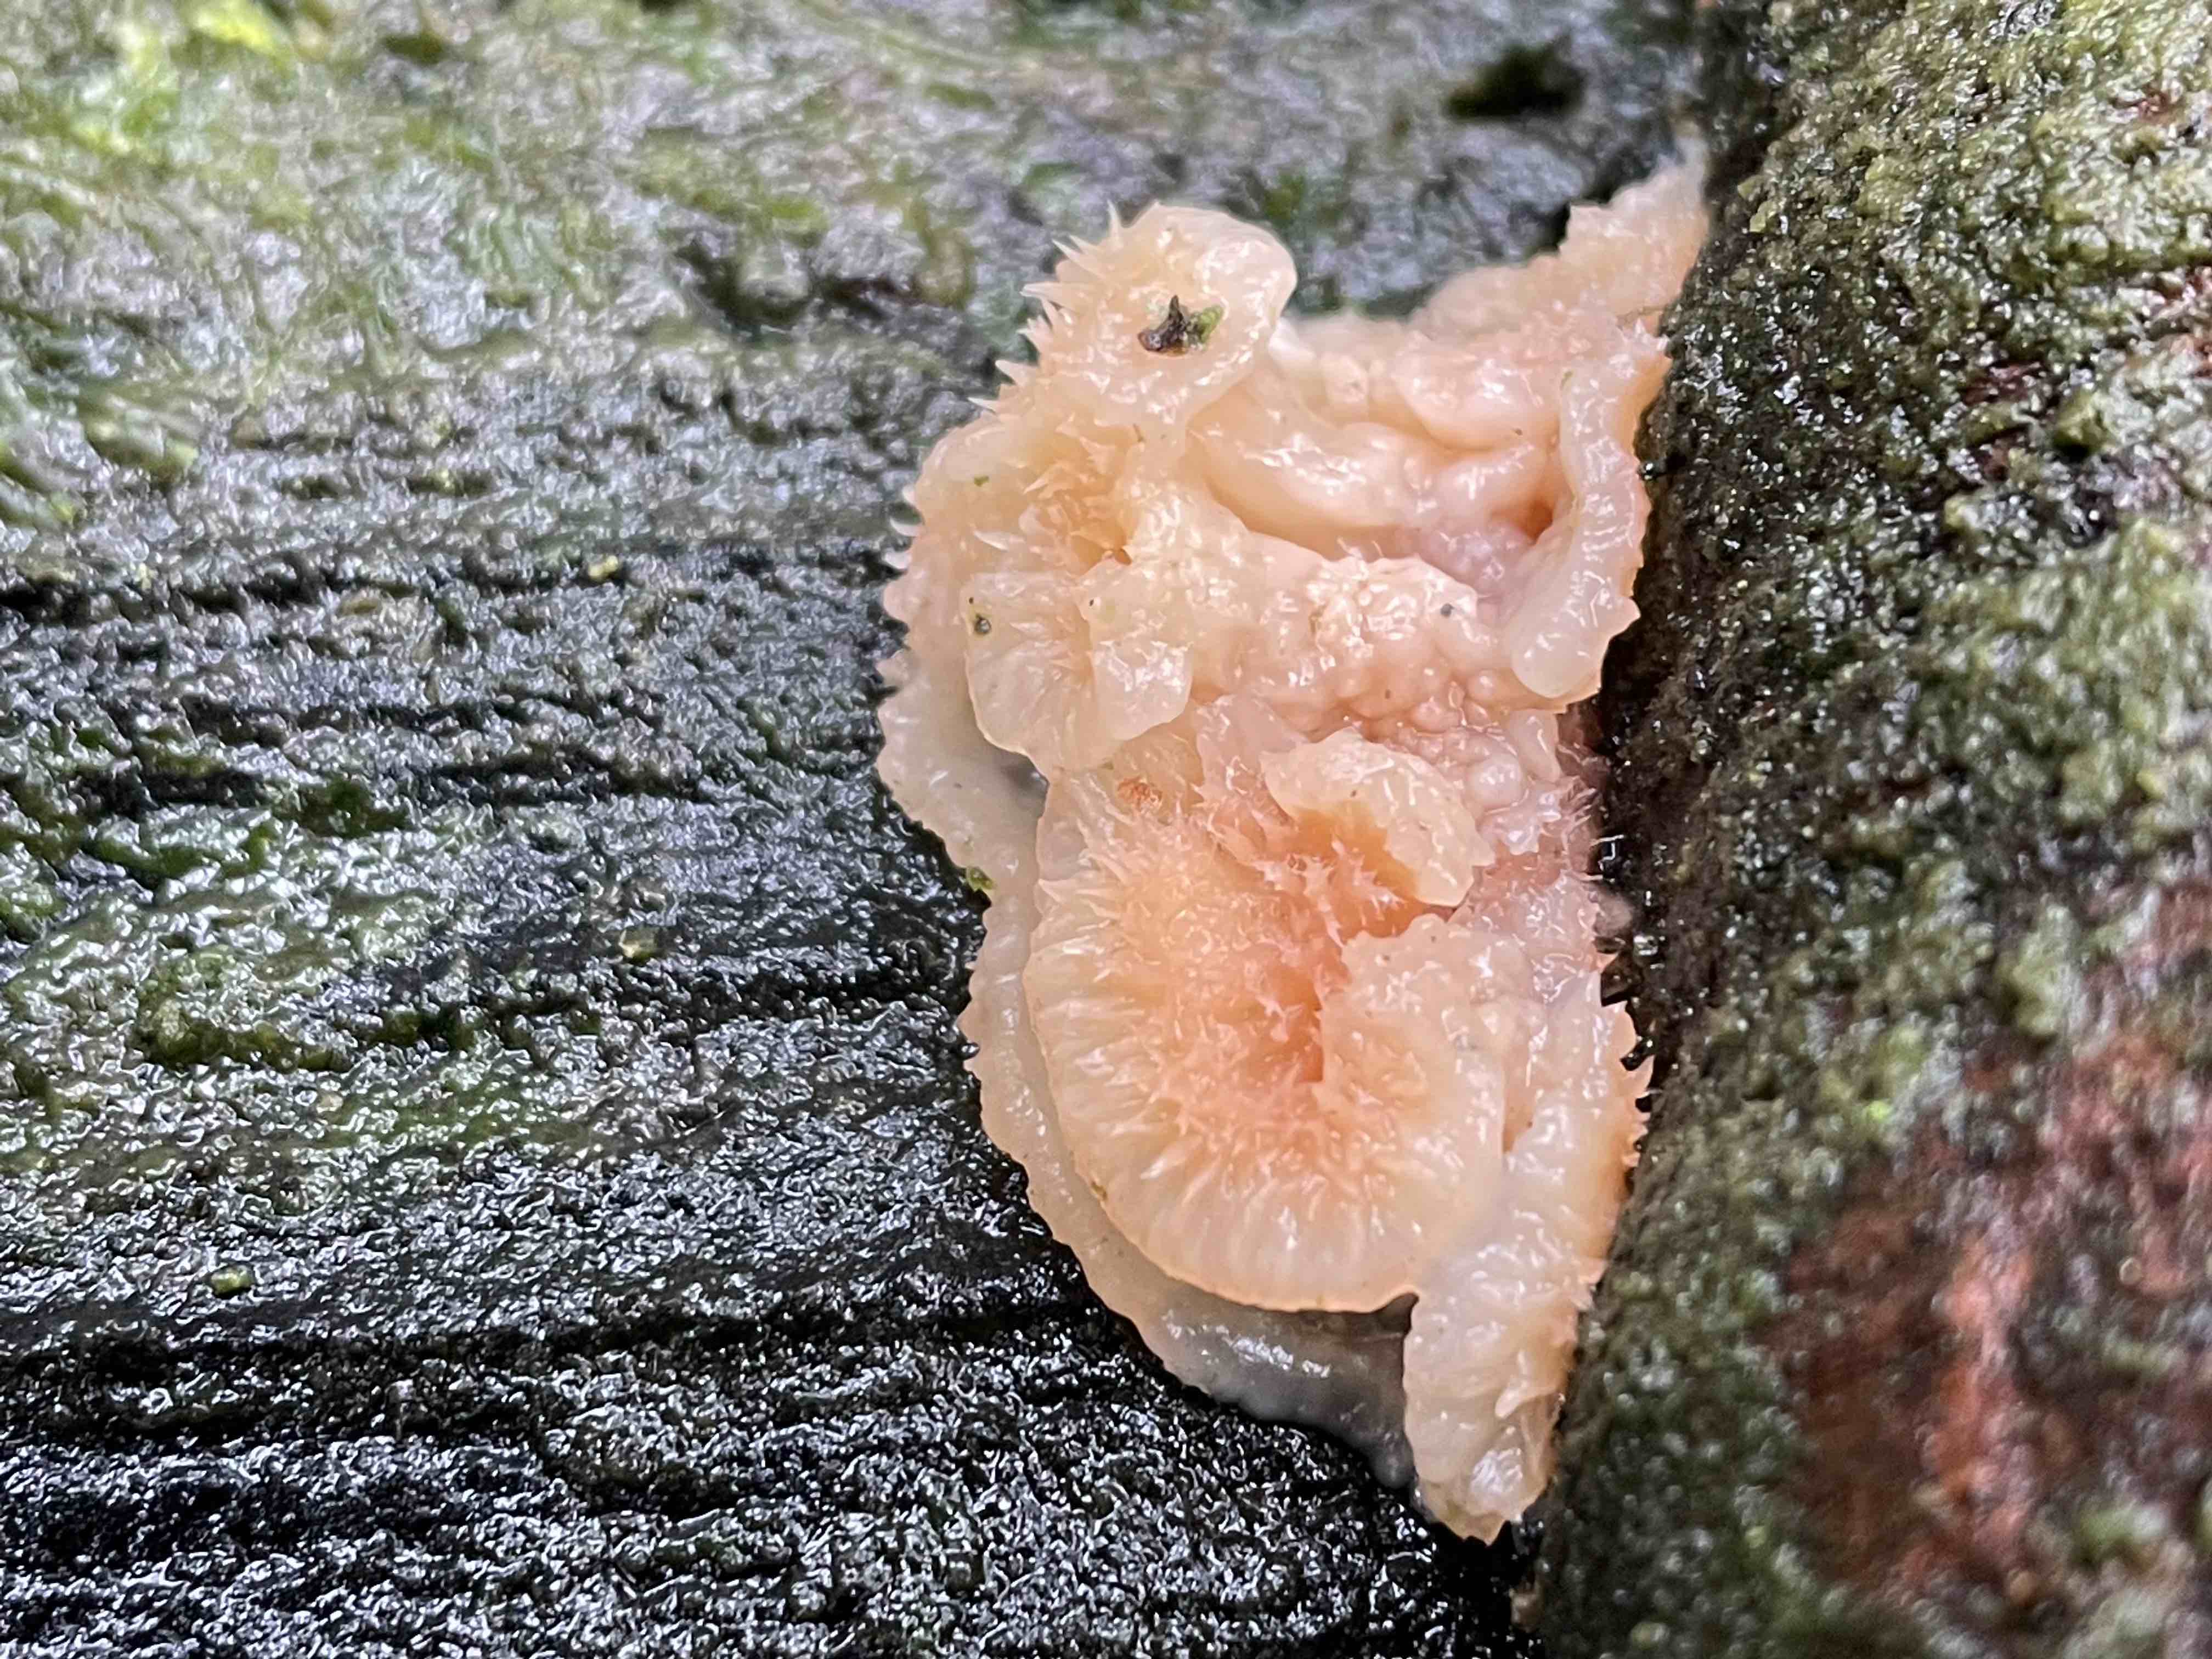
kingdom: Fungi
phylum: Basidiomycota
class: Agaricomycetes
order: Polyporales
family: Meruliaceae
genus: Phlebia
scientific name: Phlebia tremellosa
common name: bævrende åresvamp
